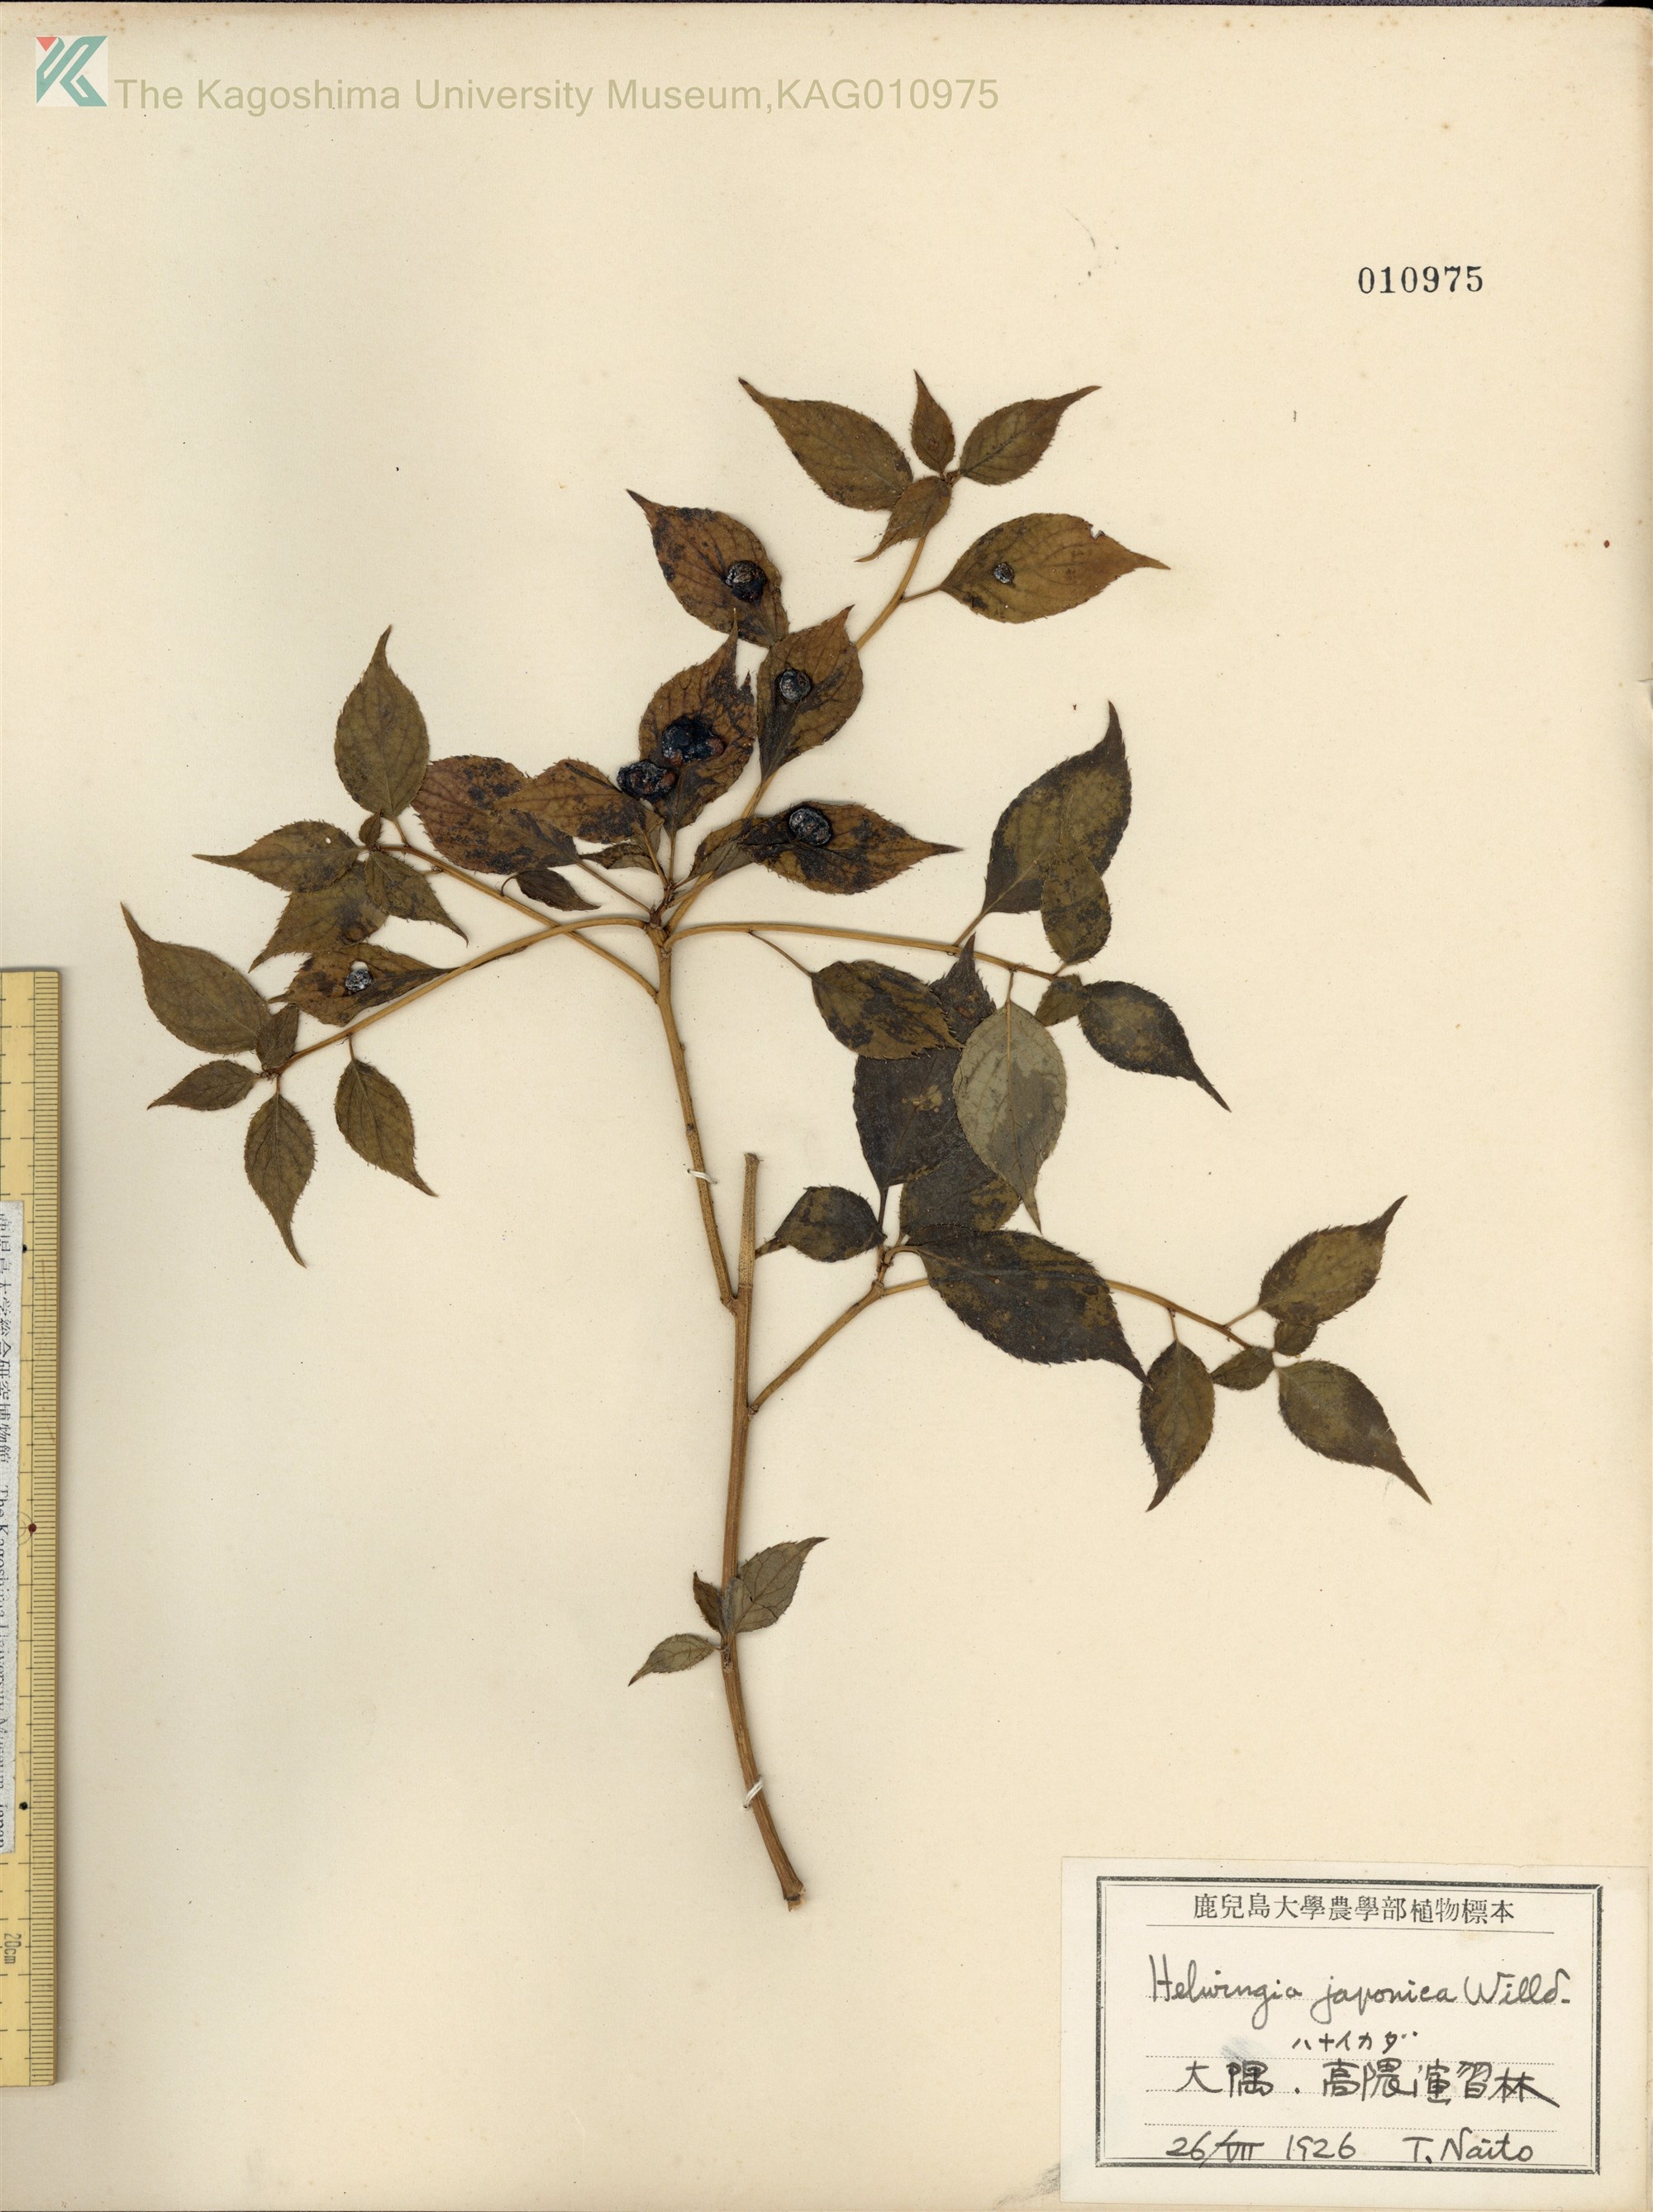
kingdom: Plantae
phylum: Tracheophyta
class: Magnoliopsida
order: Aquifoliales
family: Helwingiaceae
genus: Helwingia
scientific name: Helwingia japonica
